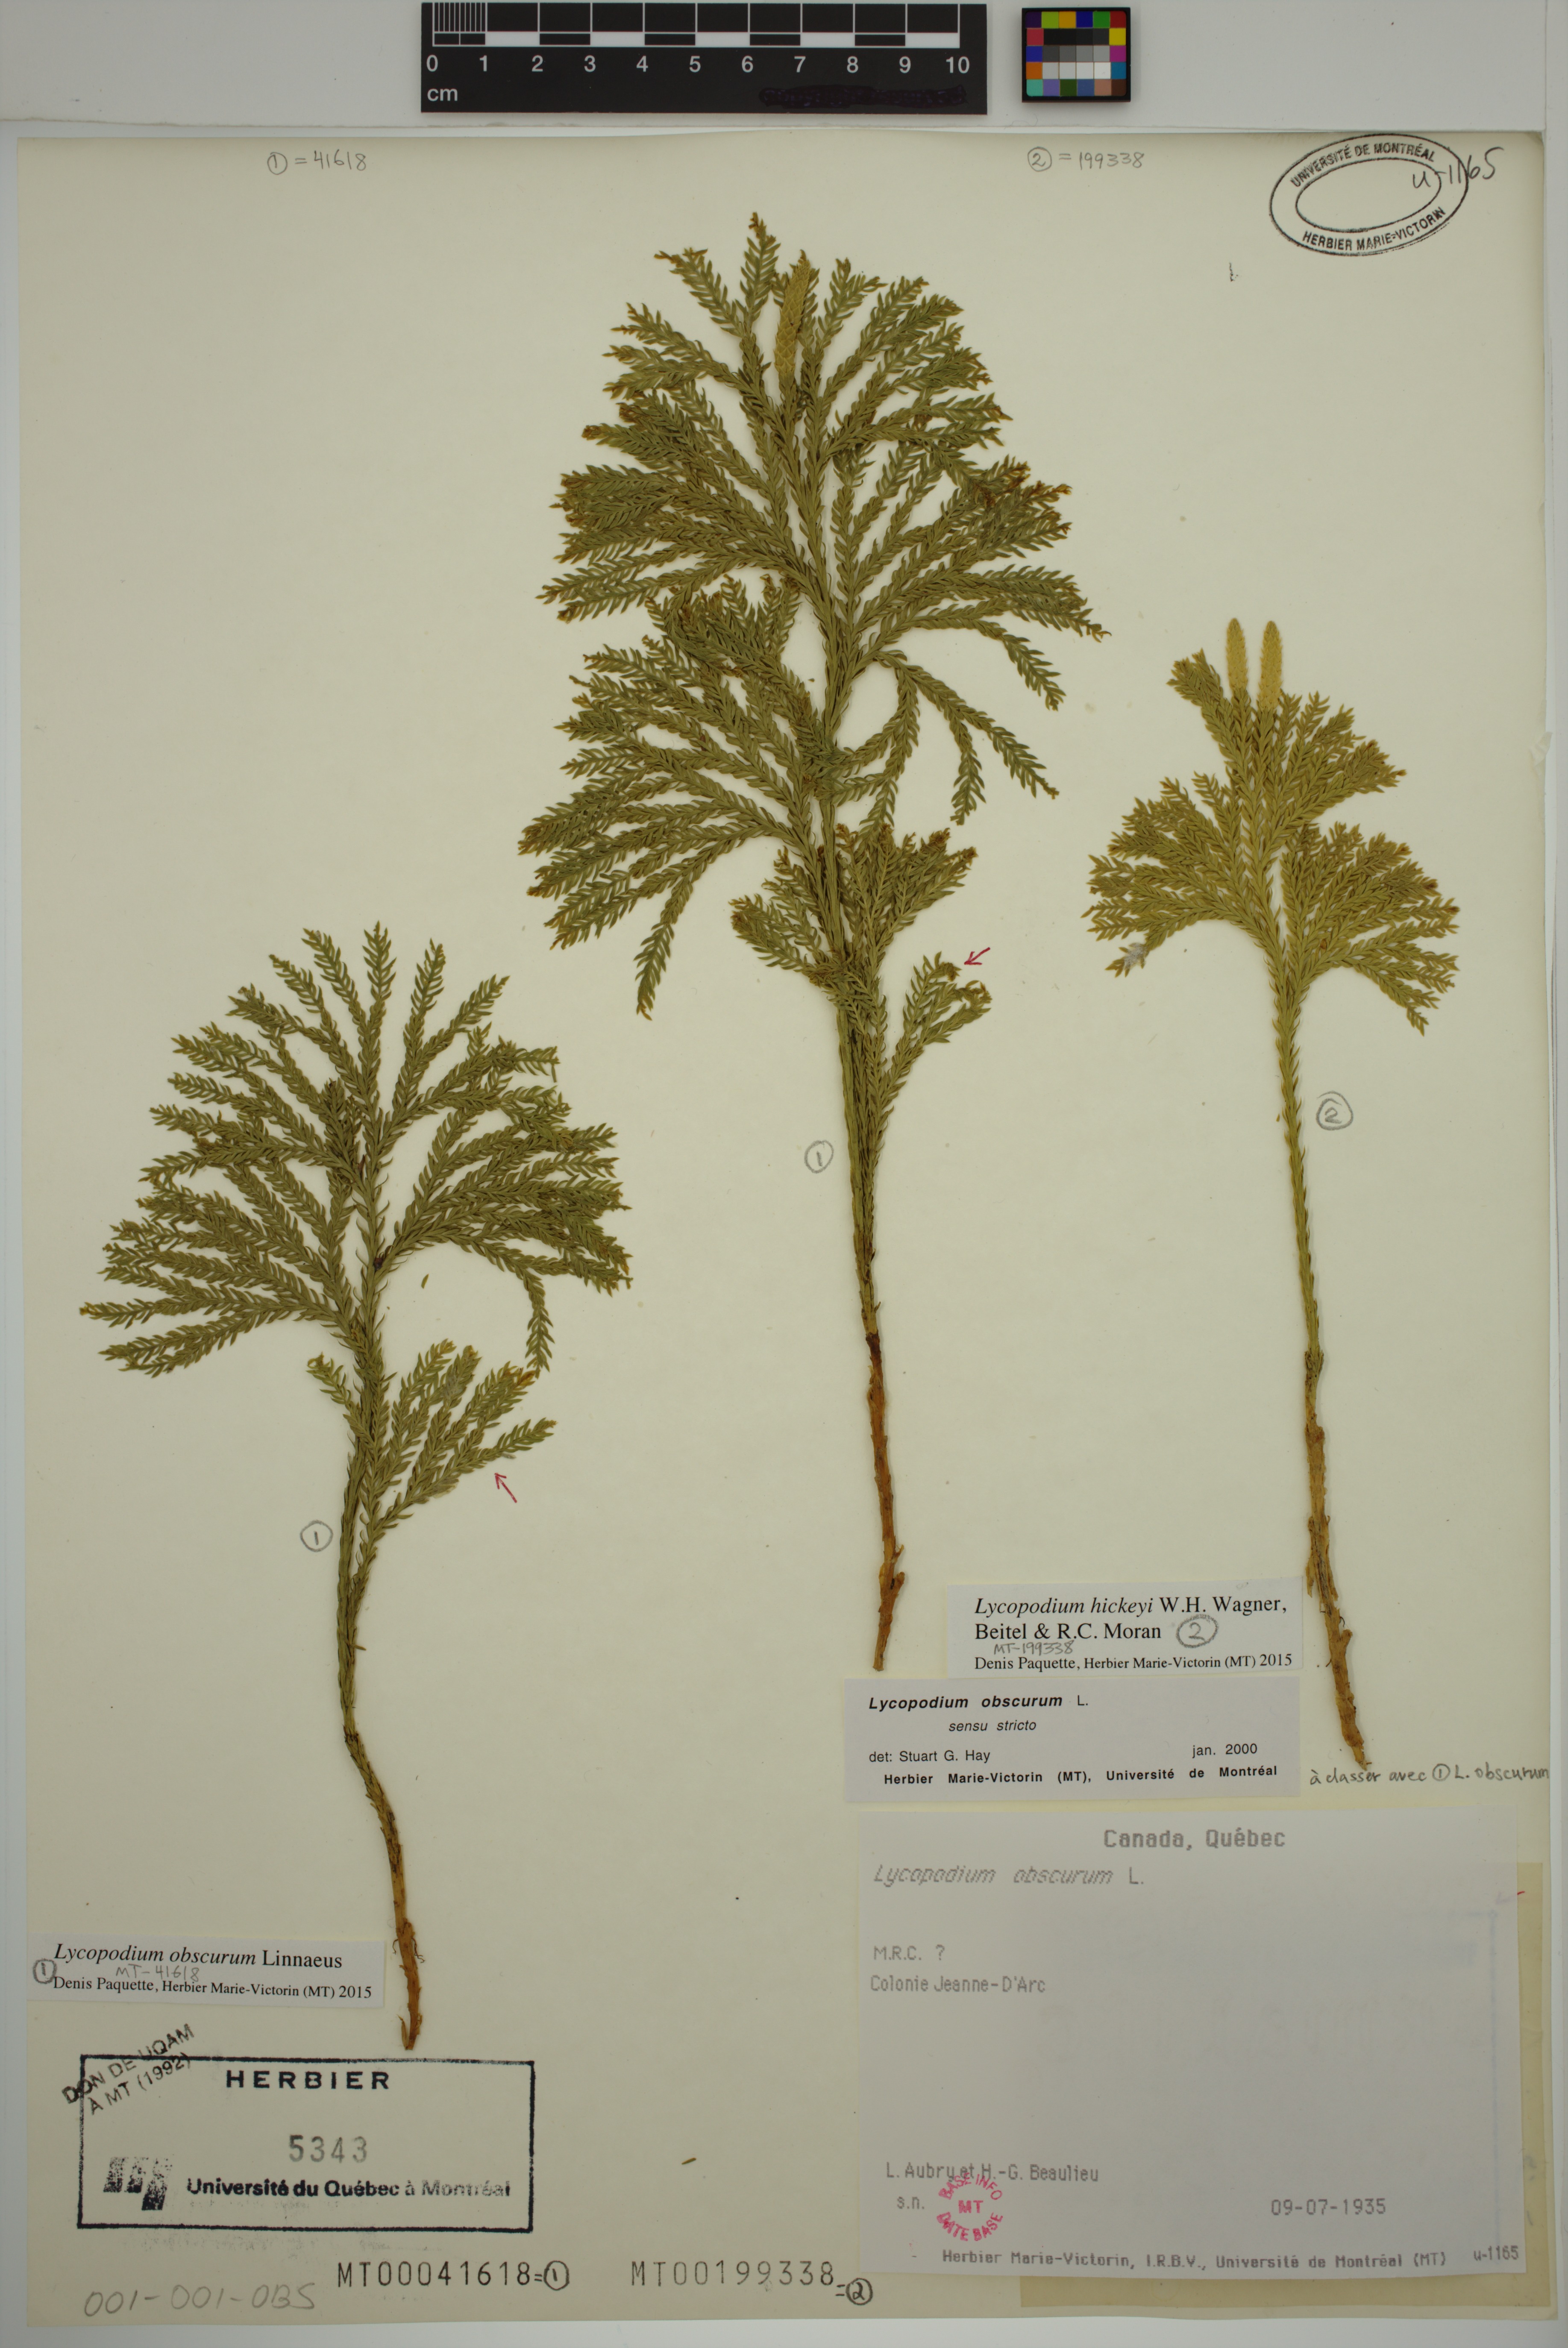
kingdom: Plantae
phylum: Tracheophyta
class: Lycopodiopsida
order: Lycopodiales
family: Lycopodiaceae
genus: Dendrolycopodium
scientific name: Dendrolycopodium obscurum
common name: Common ground-pine
